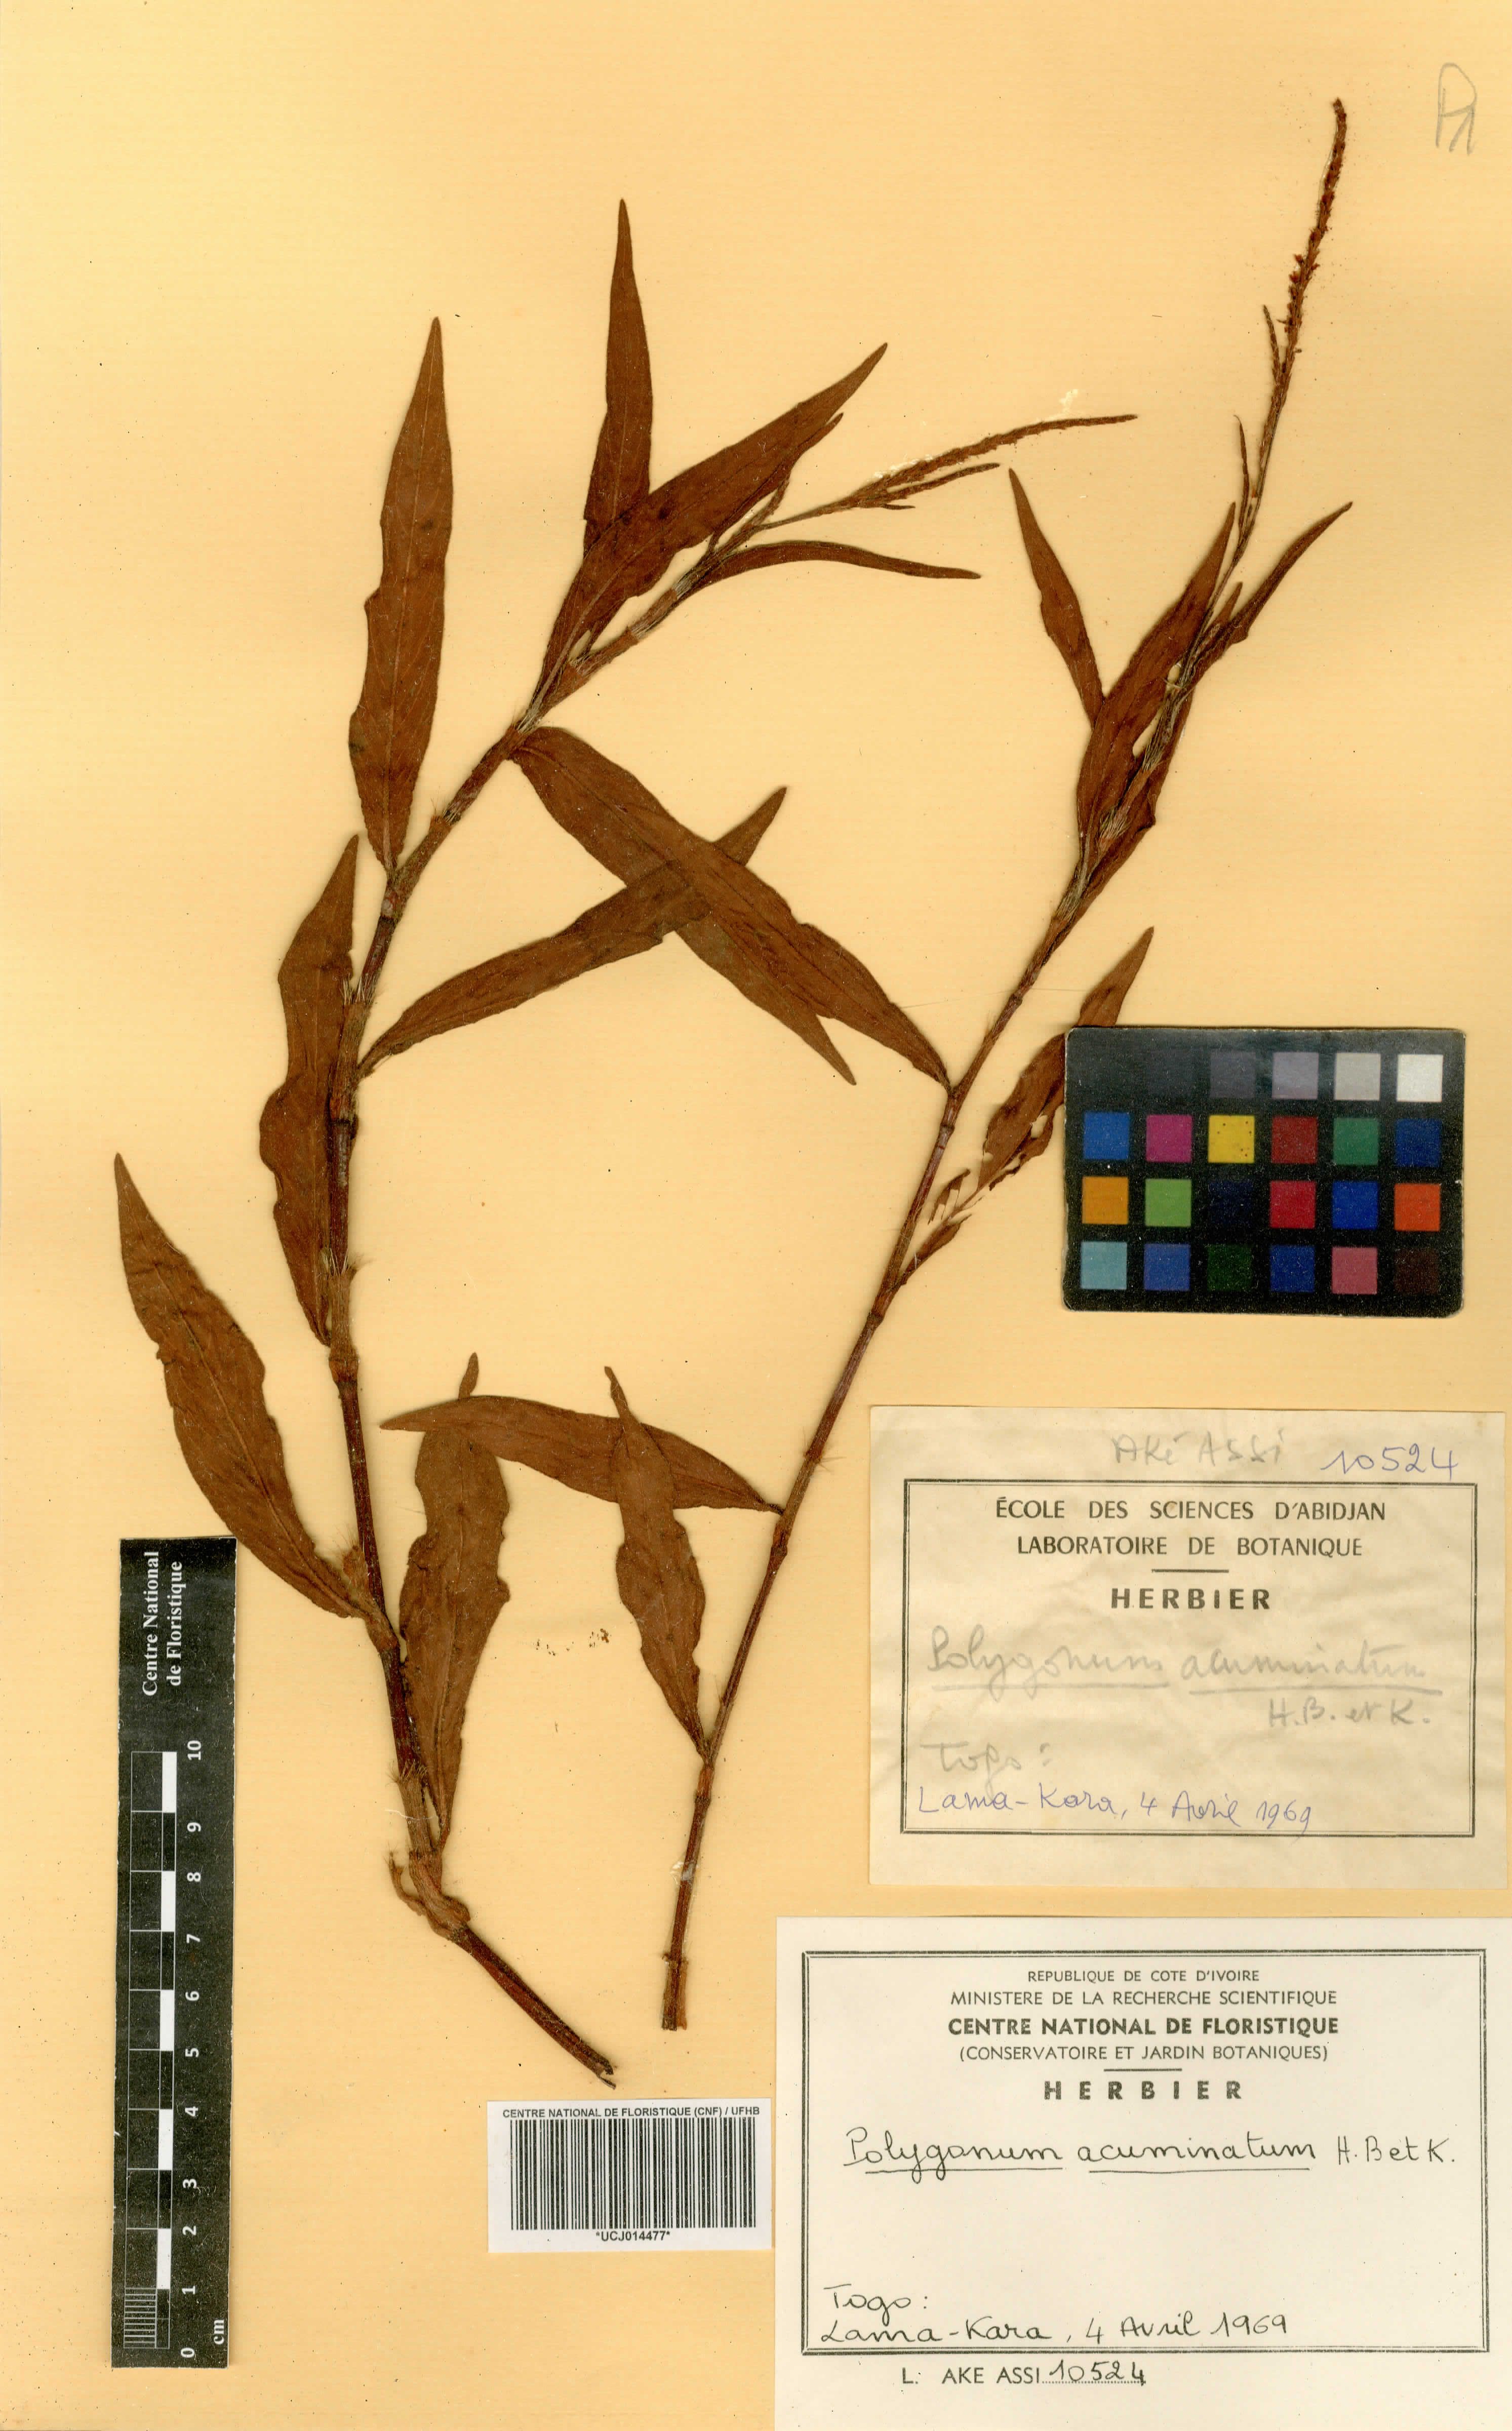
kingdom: Plantae
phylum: Tracheophyta
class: Magnoliopsida
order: Caryophyllales
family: Polygonaceae
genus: Persicaria
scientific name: Persicaria acuminata
